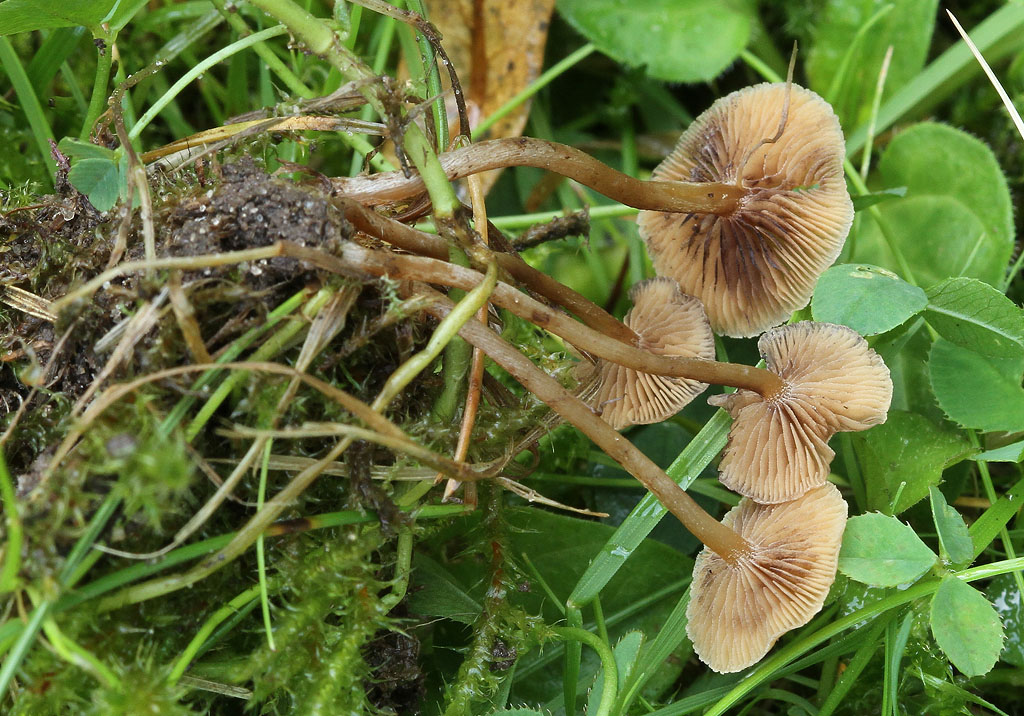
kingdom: Fungi
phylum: Basidiomycota
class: Agaricomycetes
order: Agaricales
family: Hymenogastraceae
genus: Psilocybe
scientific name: Psilocybe subviscida
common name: puklet stråhat
